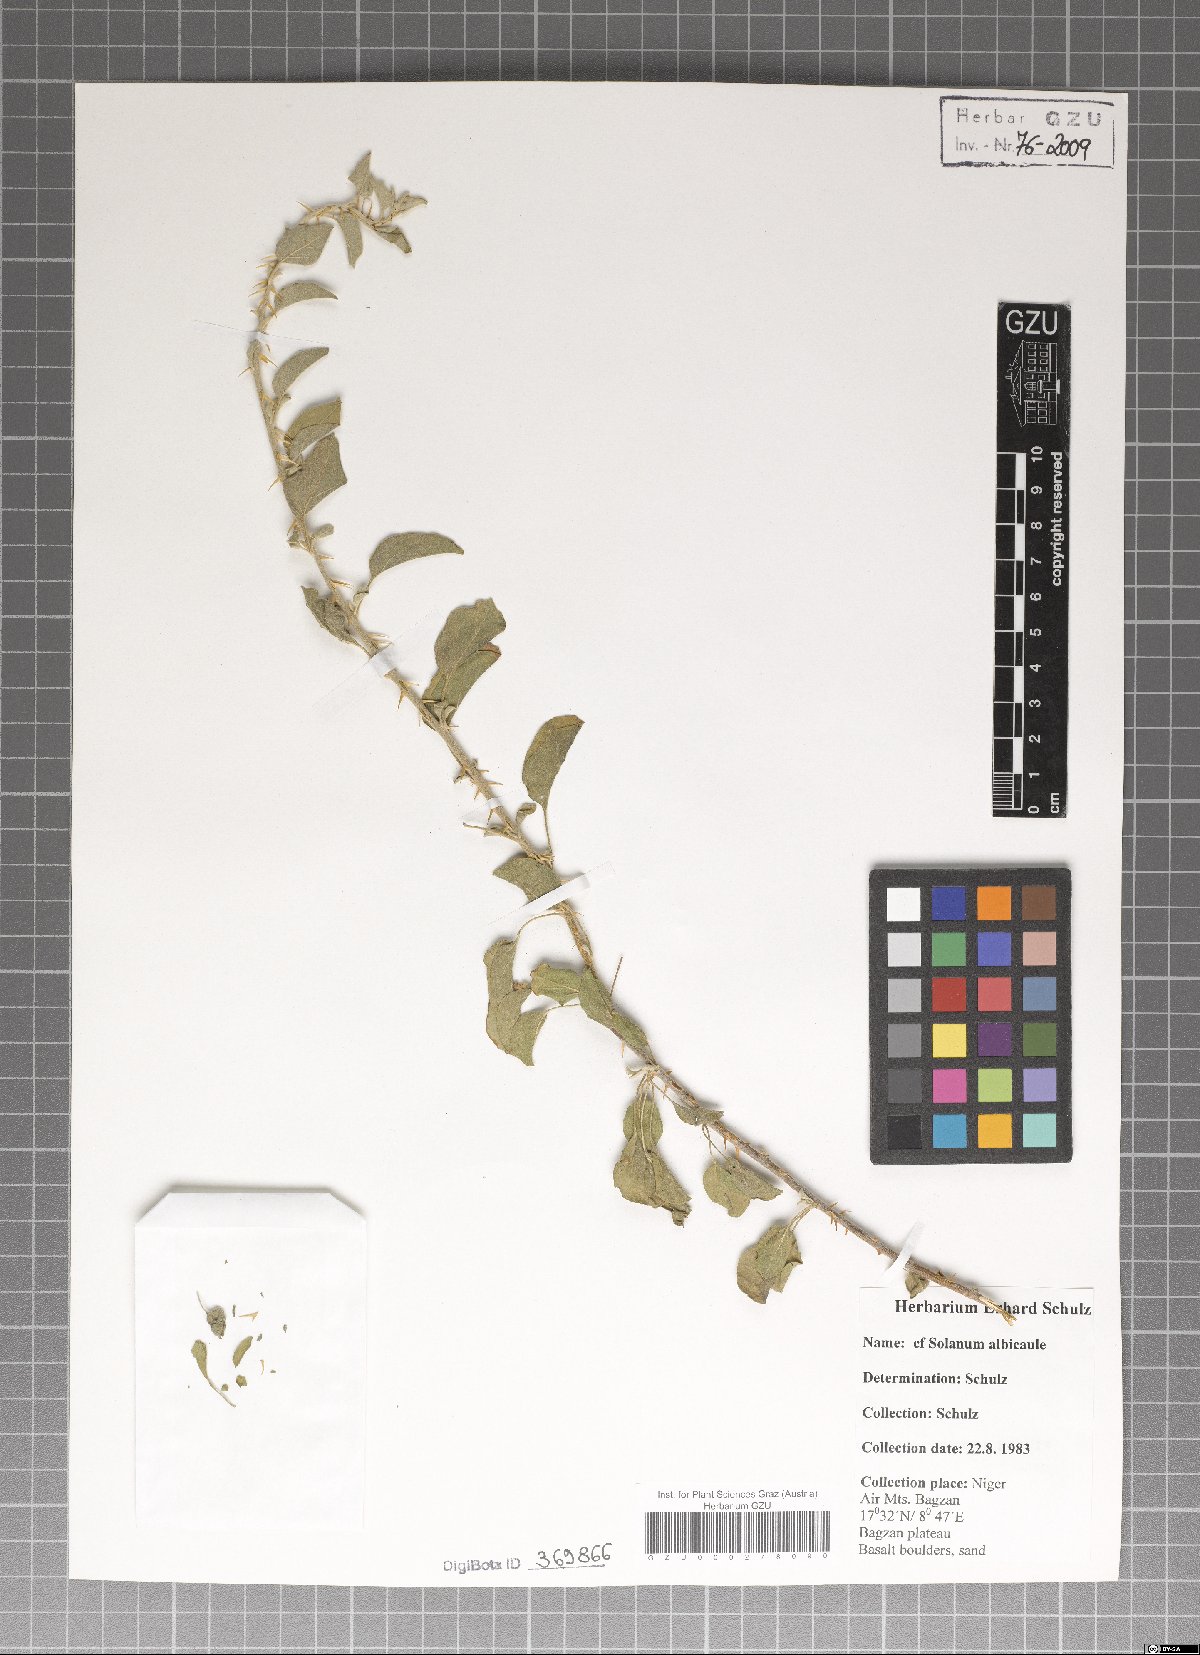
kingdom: Plantae
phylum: Tracheophyta
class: Magnoliopsida
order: Solanales
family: Solanaceae
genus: Solanum
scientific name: Solanum forsskaolii
